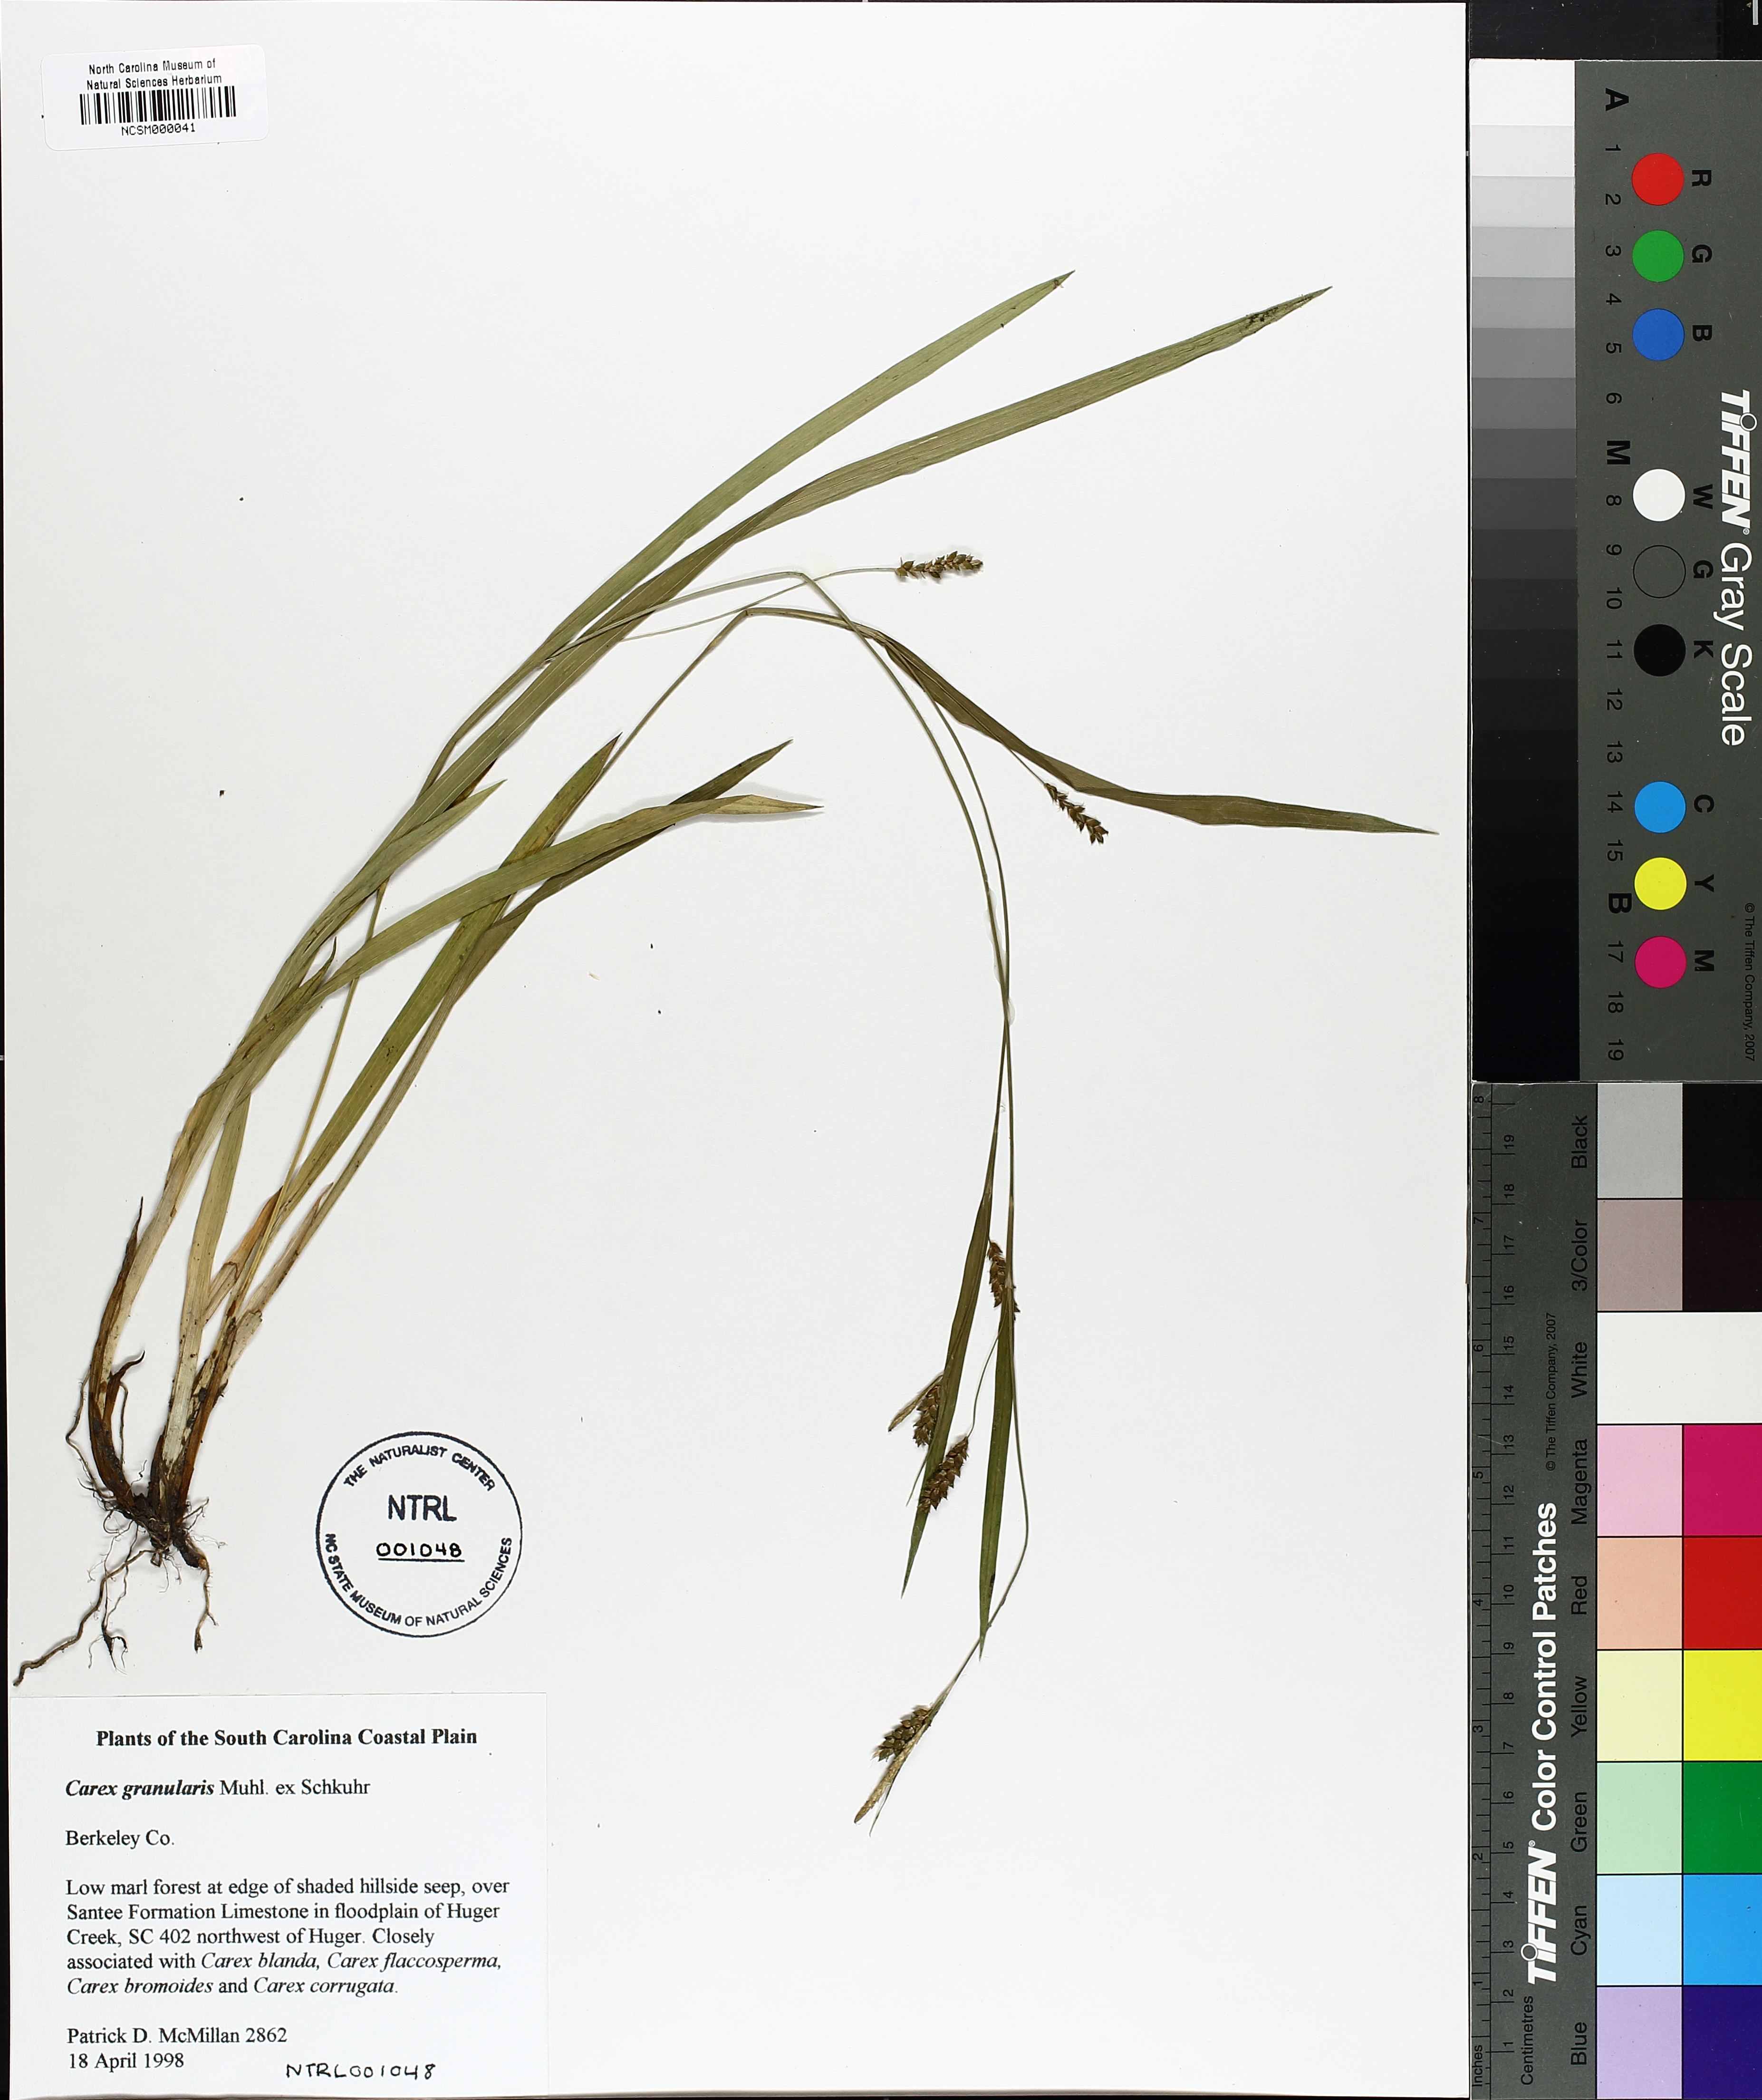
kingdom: Plantae
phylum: Tracheophyta
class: Liliopsida
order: Poales
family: Cyperaceae
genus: Carex
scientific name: Carex granularis
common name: Granular sedge
